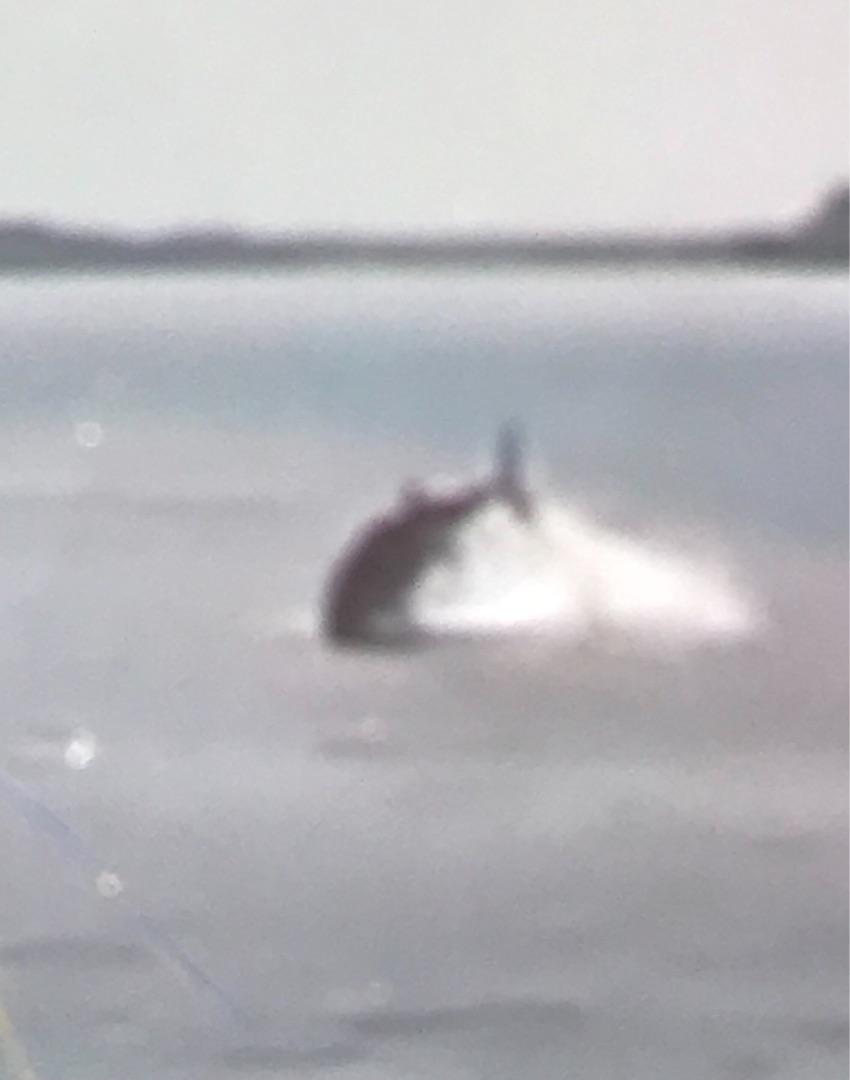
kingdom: Animalia
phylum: Chordata
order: Perciformes
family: Scombridae
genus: Thunnus
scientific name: Thunnus thynnus
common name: Atlantisk tun
